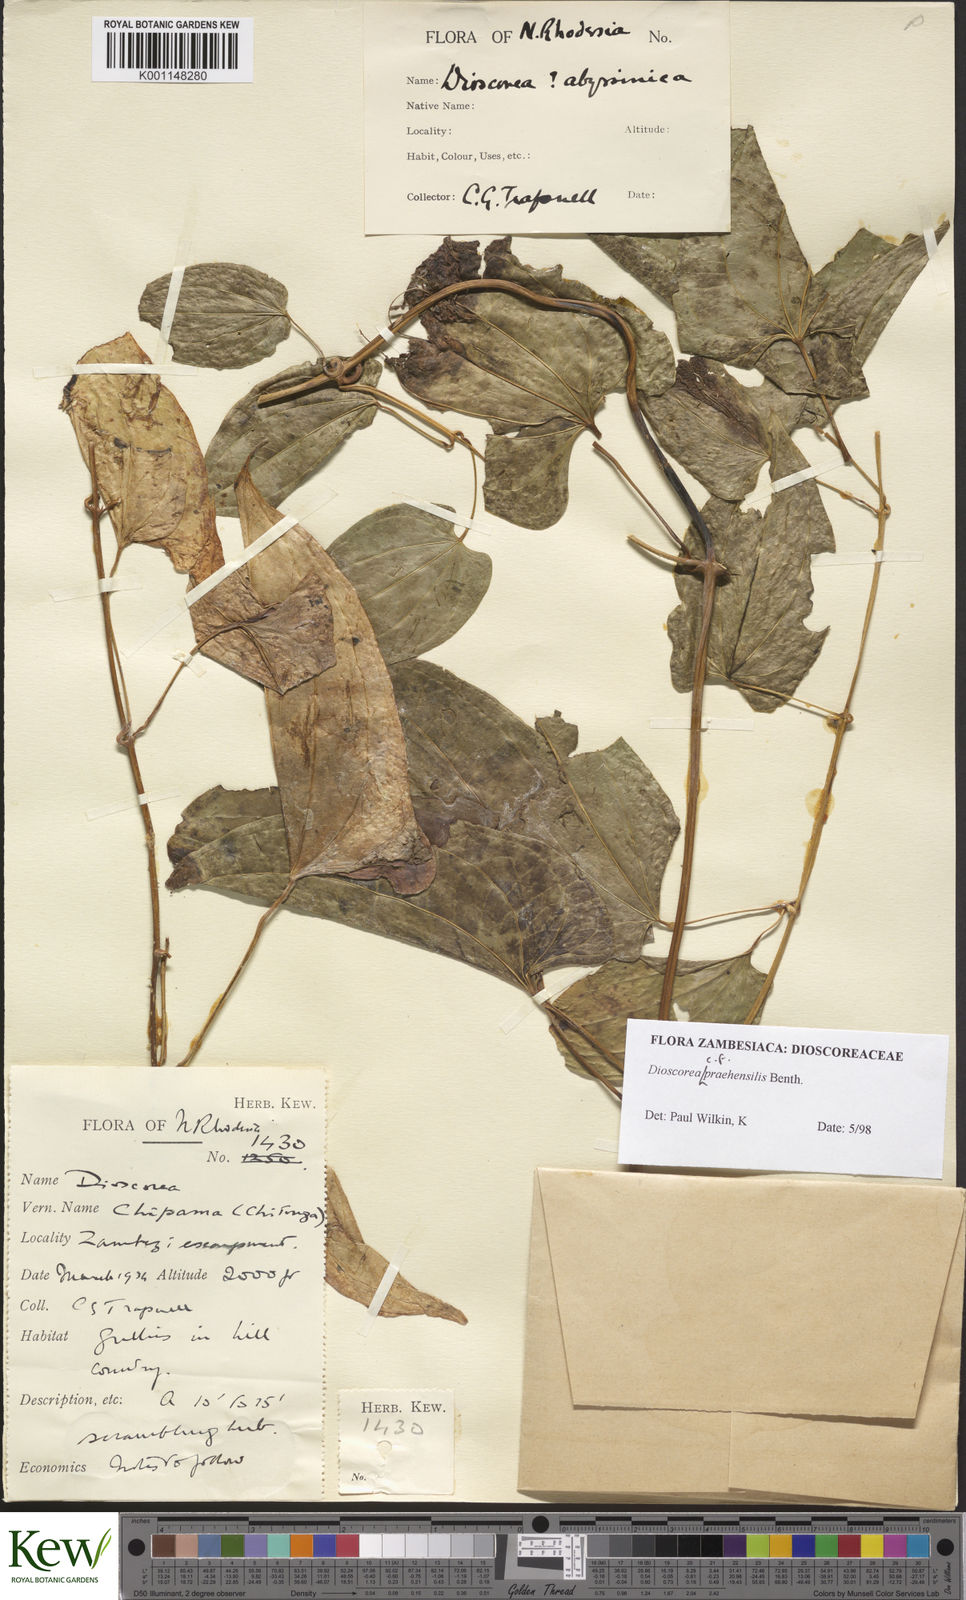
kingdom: Plantae
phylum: Tracheophyta
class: Liliopsida
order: Dioscoreales
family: Dioscoreaceae
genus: Dioscorea
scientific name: Dioscorea praehensilis
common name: Bush yam
